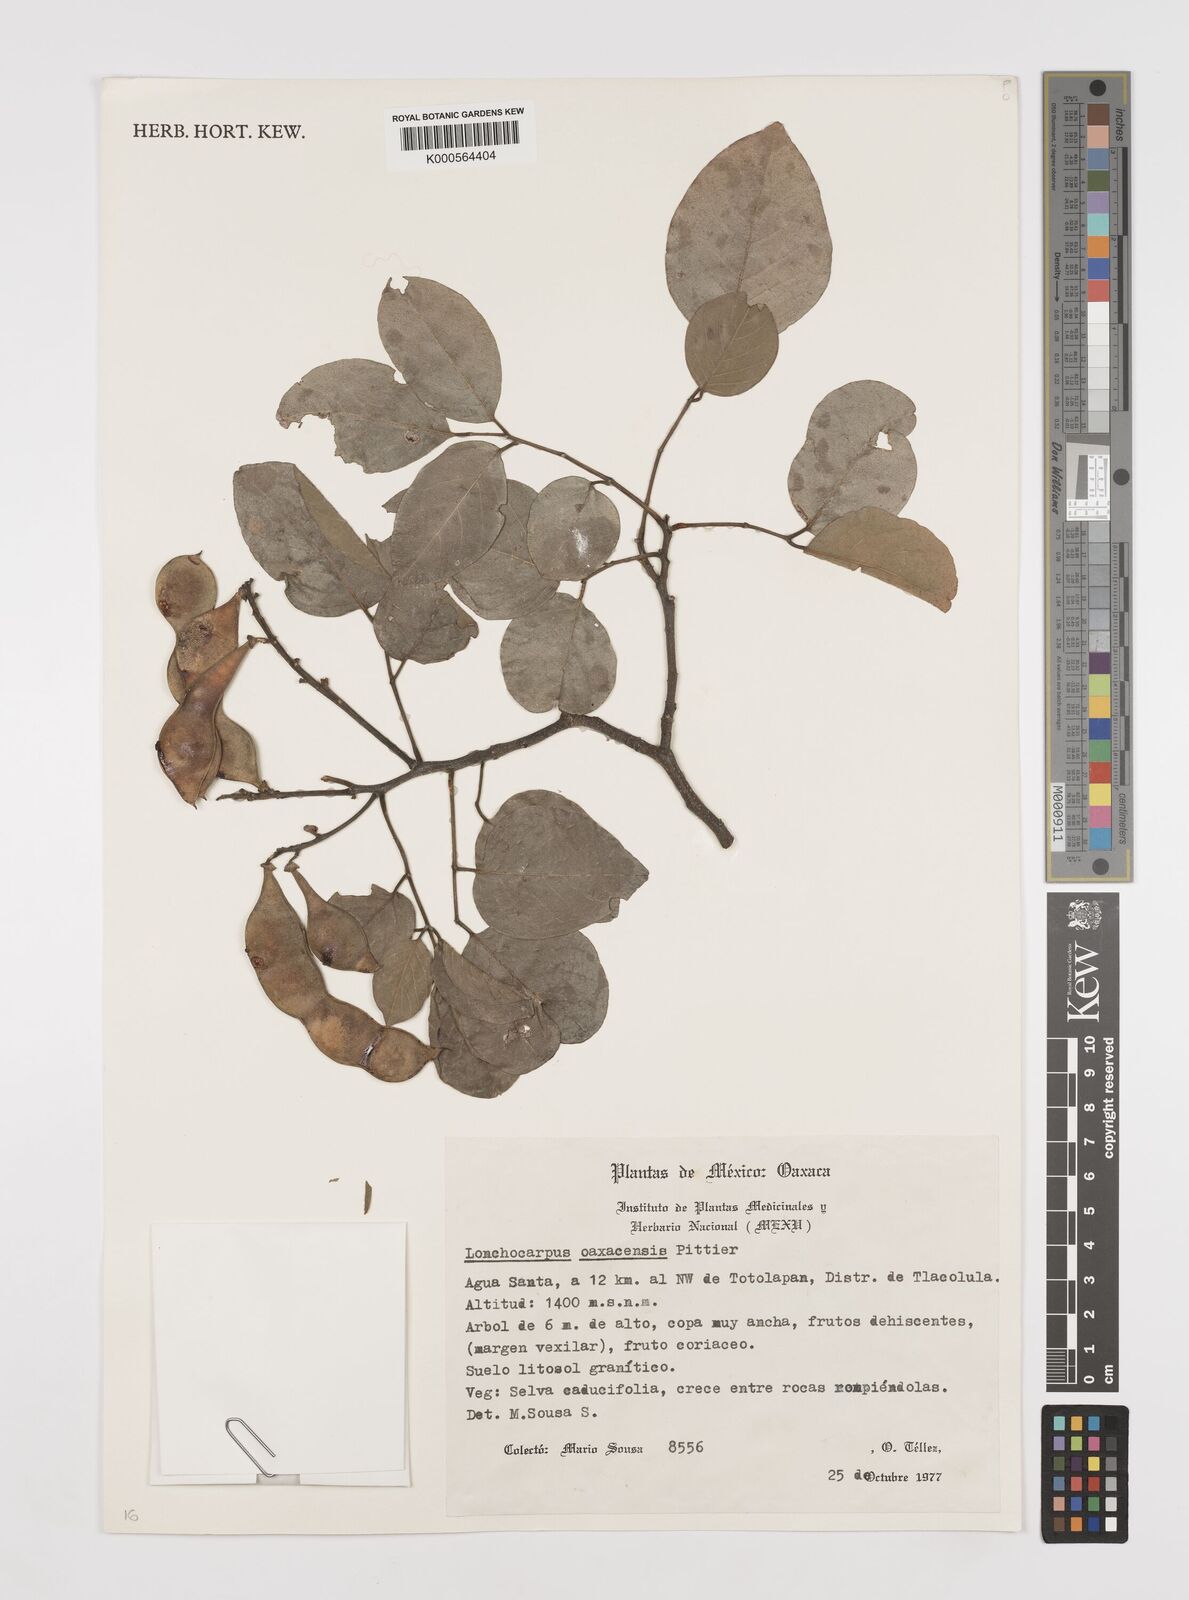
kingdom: Plantae
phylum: Tracheophyta
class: Magnoliopsida
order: Fabales
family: Fabaceae
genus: Lonchocarpus
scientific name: Lonchocarpus oaxacensis
